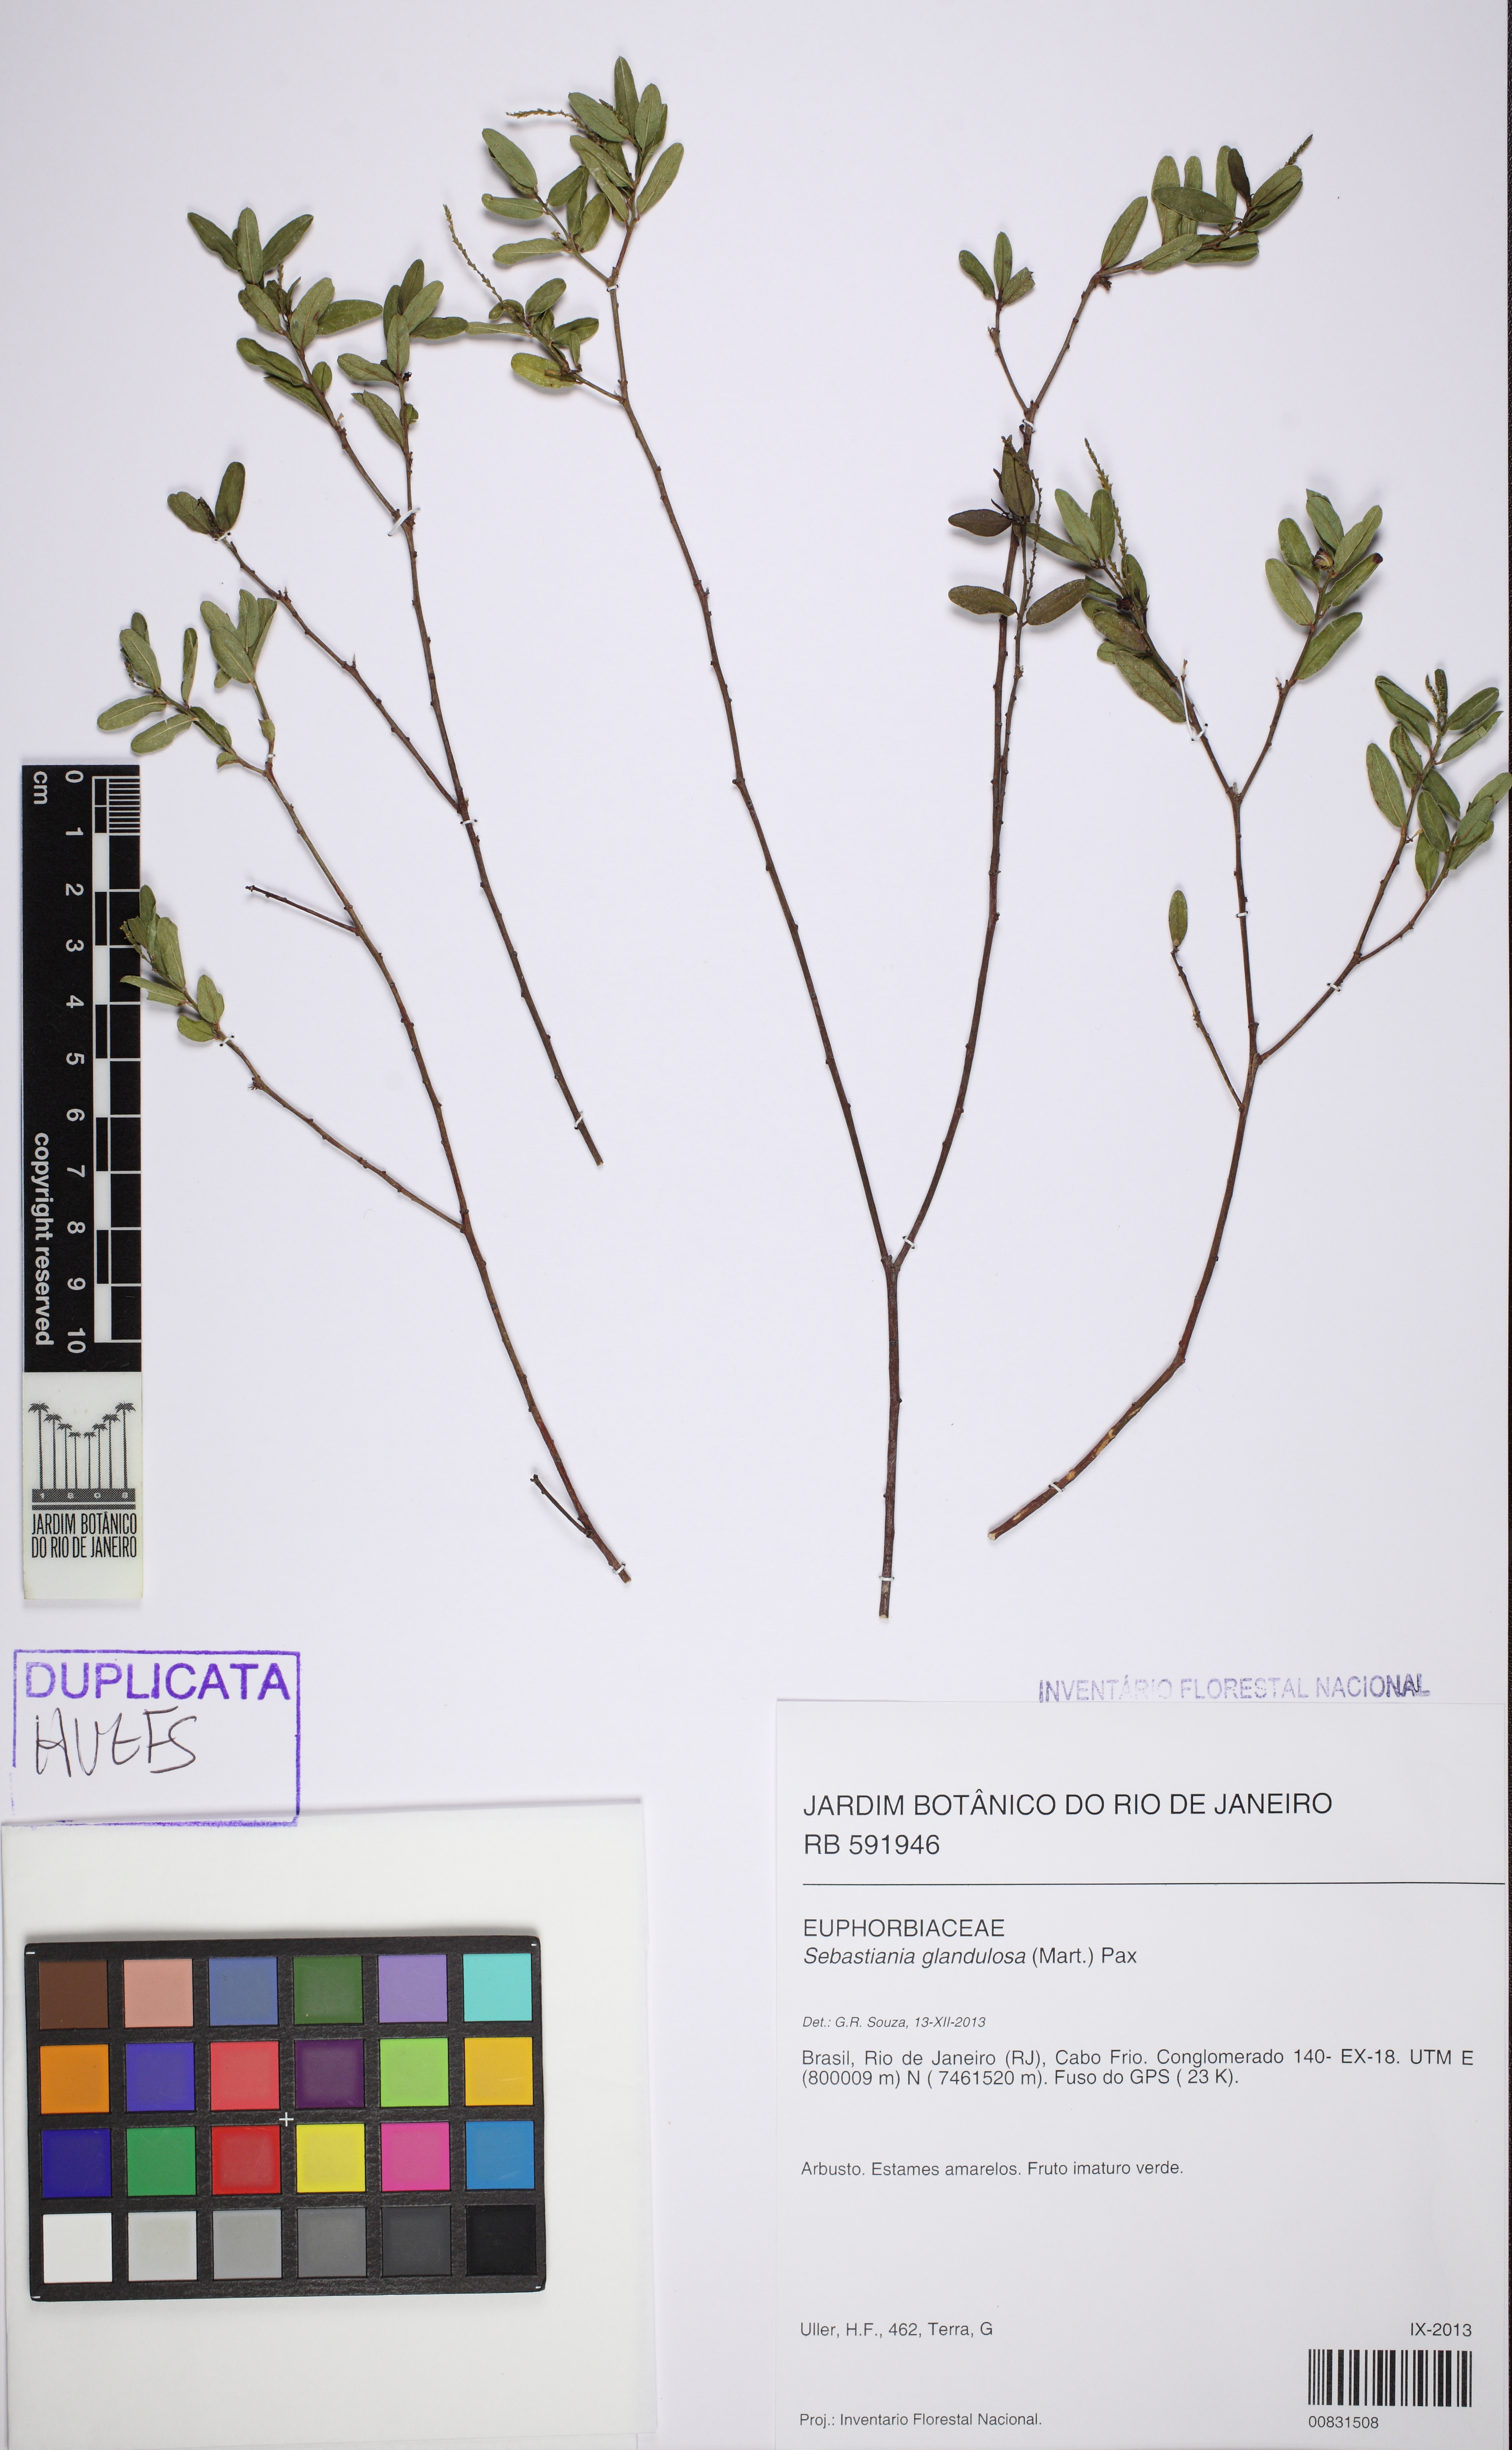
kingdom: Plantae
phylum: Tracheophyta
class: Magnoliopsida
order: Malpighiales
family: Euphorbiaceae
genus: Microstachys
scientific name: Microstachys corniculata
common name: Hato tejas
